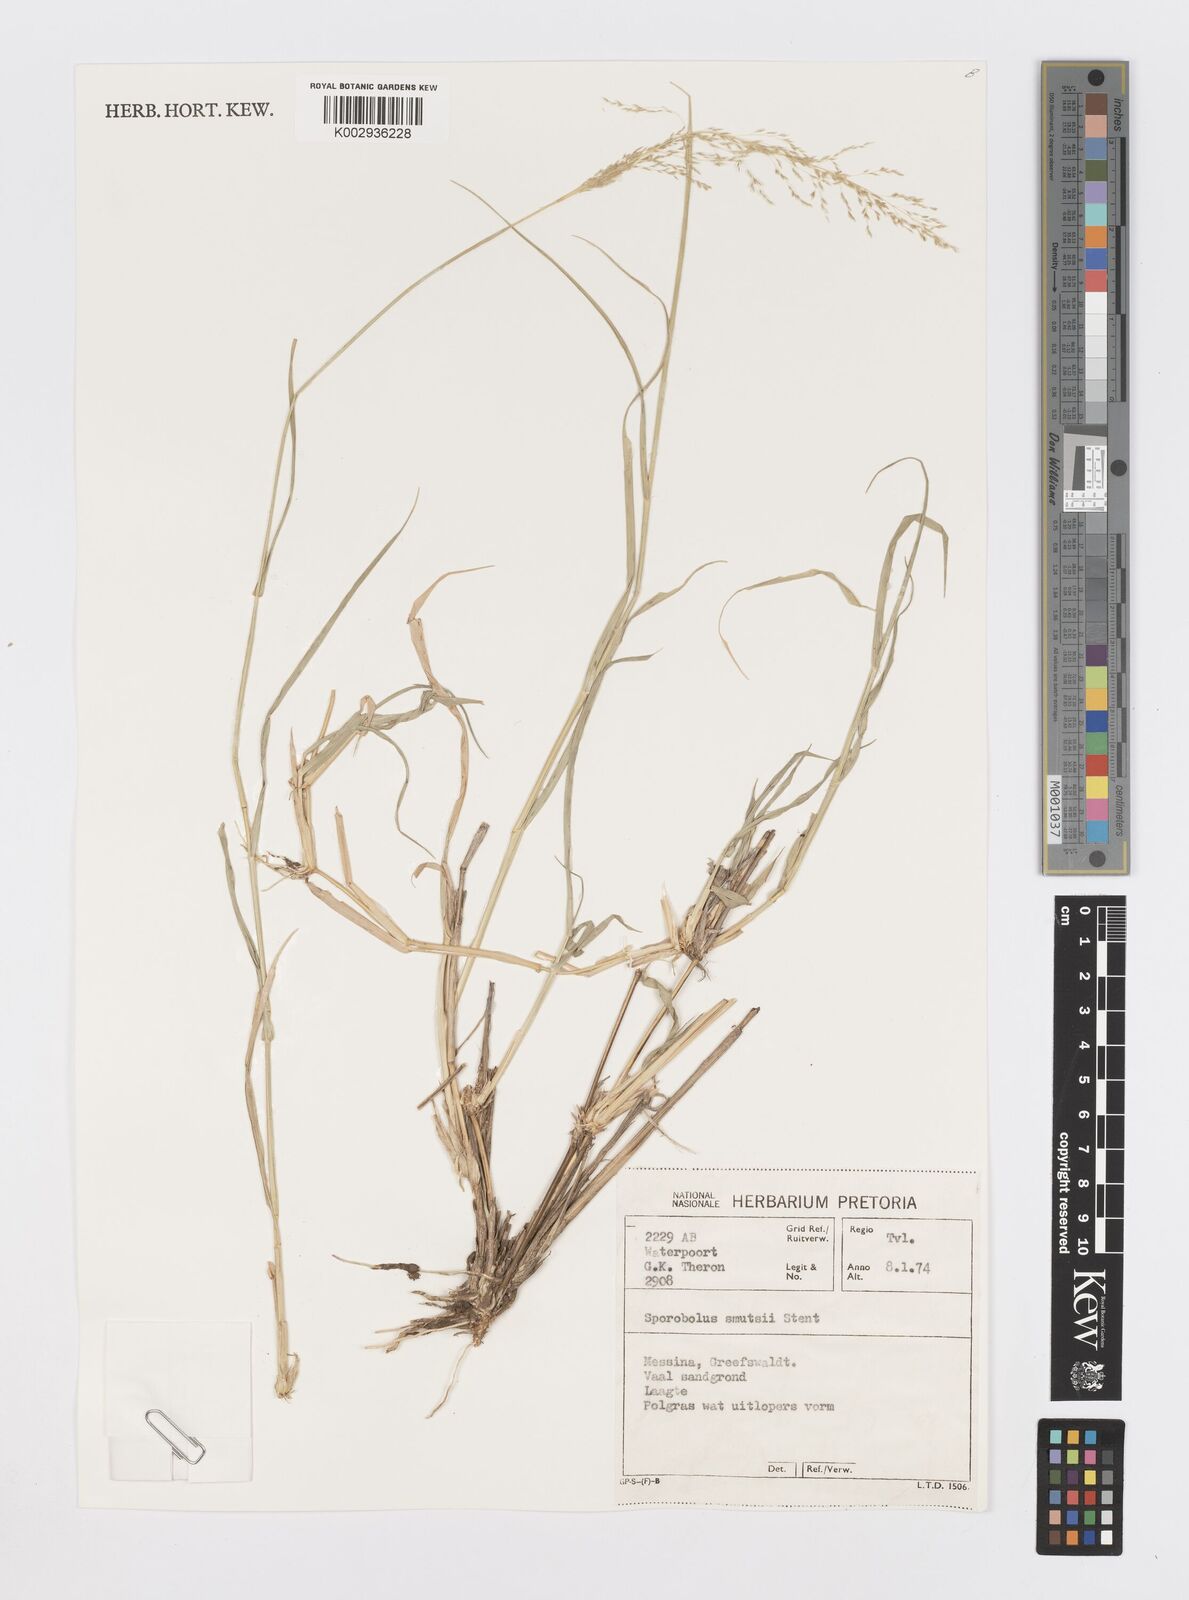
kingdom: Plantae
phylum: Tracheophyta
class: Liliopsida
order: Poales
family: Poaceae
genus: Sporobolus
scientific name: Sporobolus ioclados
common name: Pan dropseed
